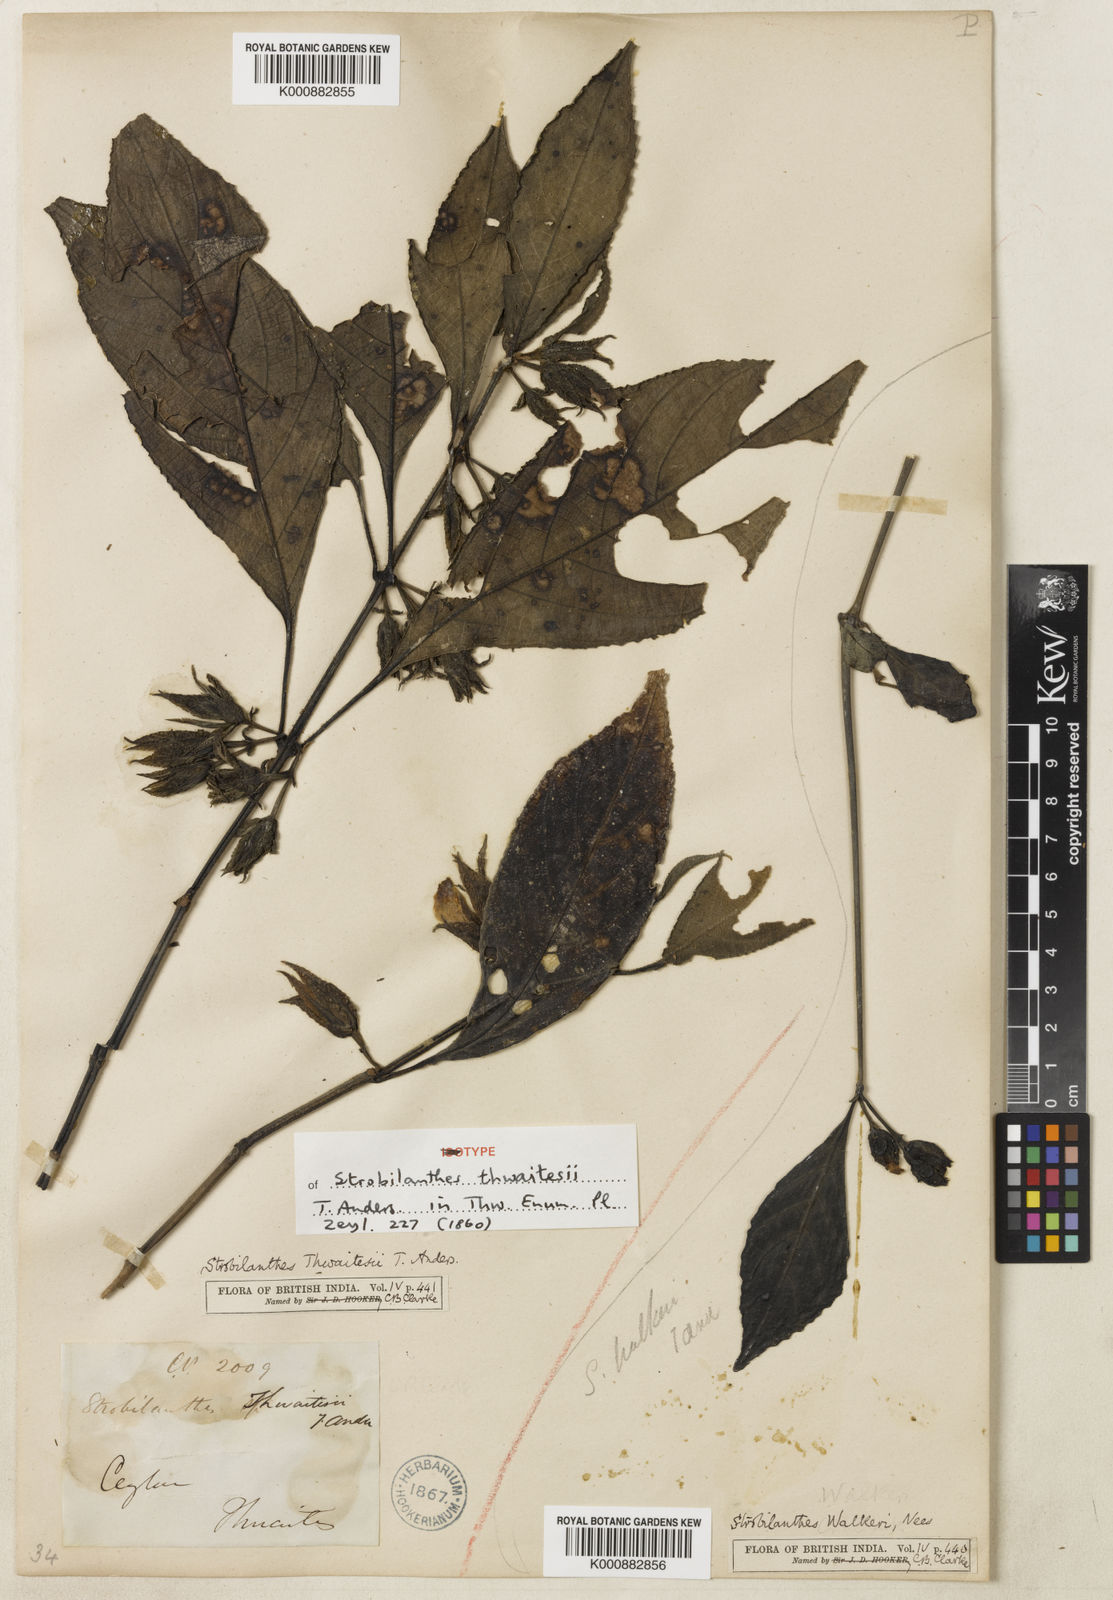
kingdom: Plantae
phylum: Tracheophyta
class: Magnoliopsida
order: Lamiales
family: Acanthaceae
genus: Strobilanthes
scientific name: Strobilanthes thwaitesii
